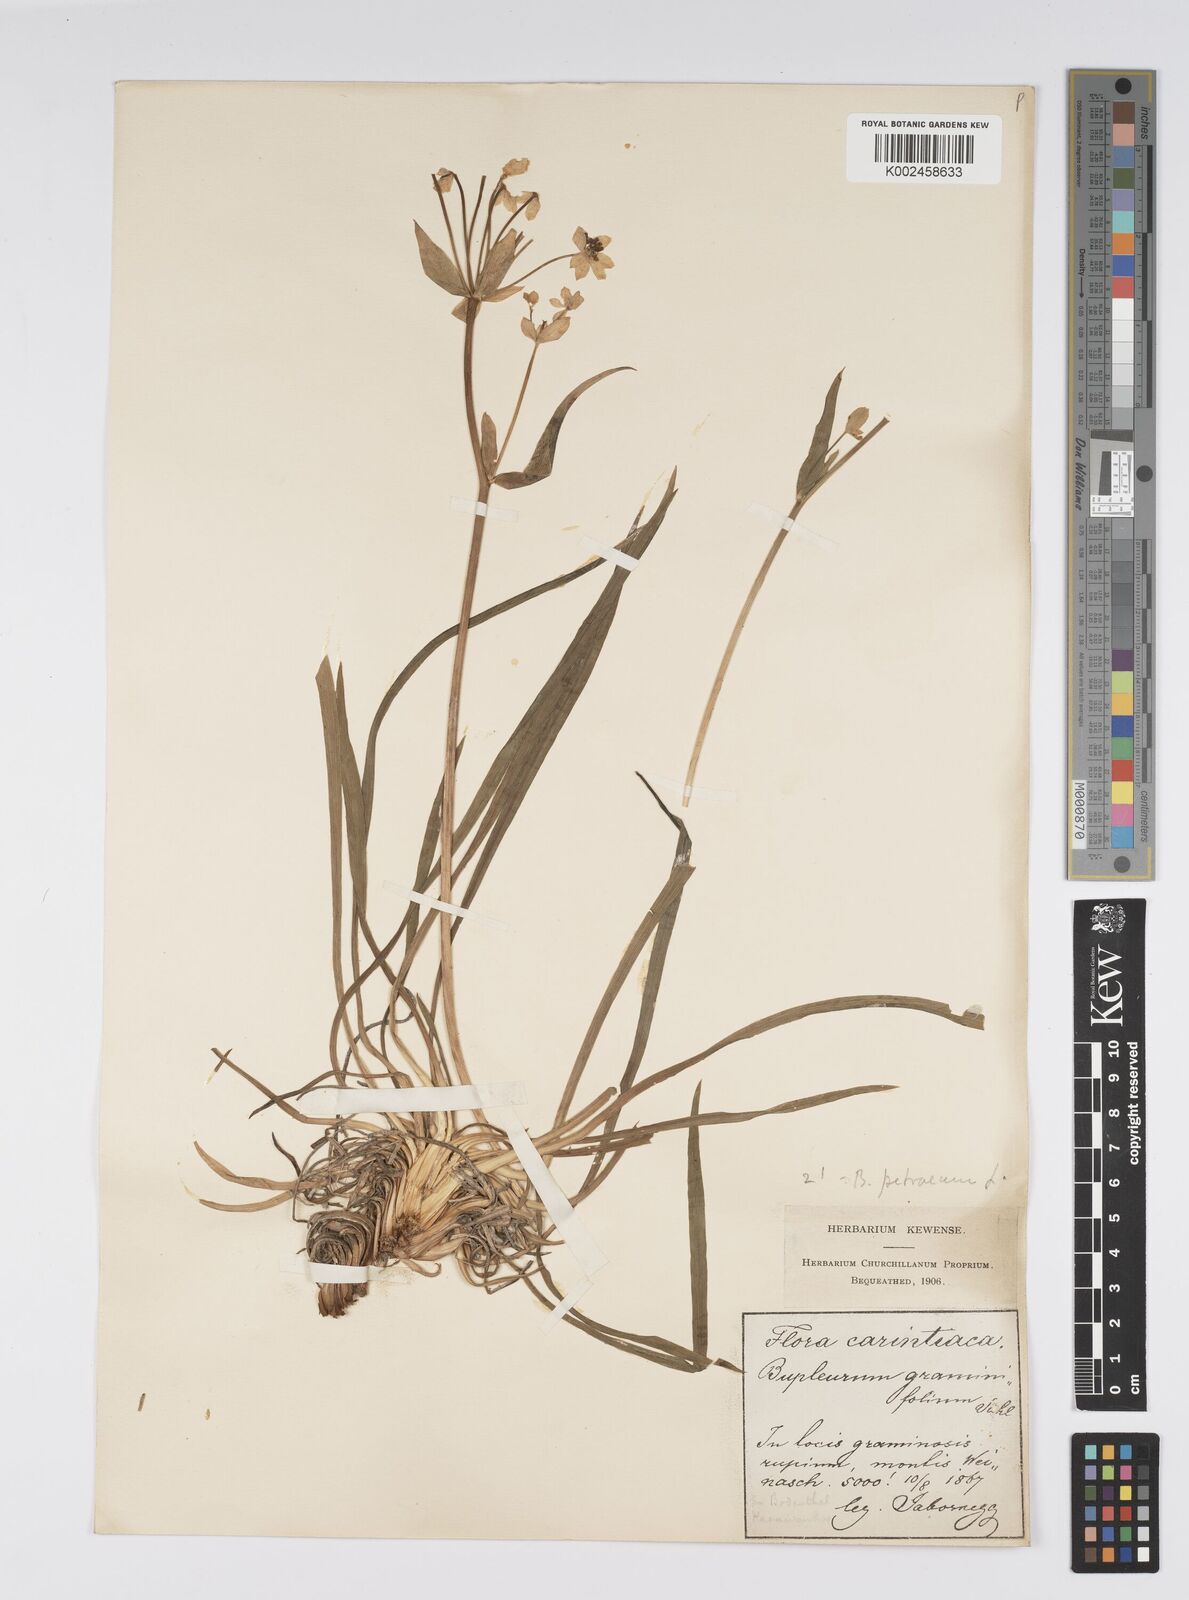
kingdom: Plantae
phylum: Tracheophyta
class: Magnoliopsida
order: Apiales
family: Apiaceae
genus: Bupleurum
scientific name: Bupleurum petraeum
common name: Rock hare's-ear
